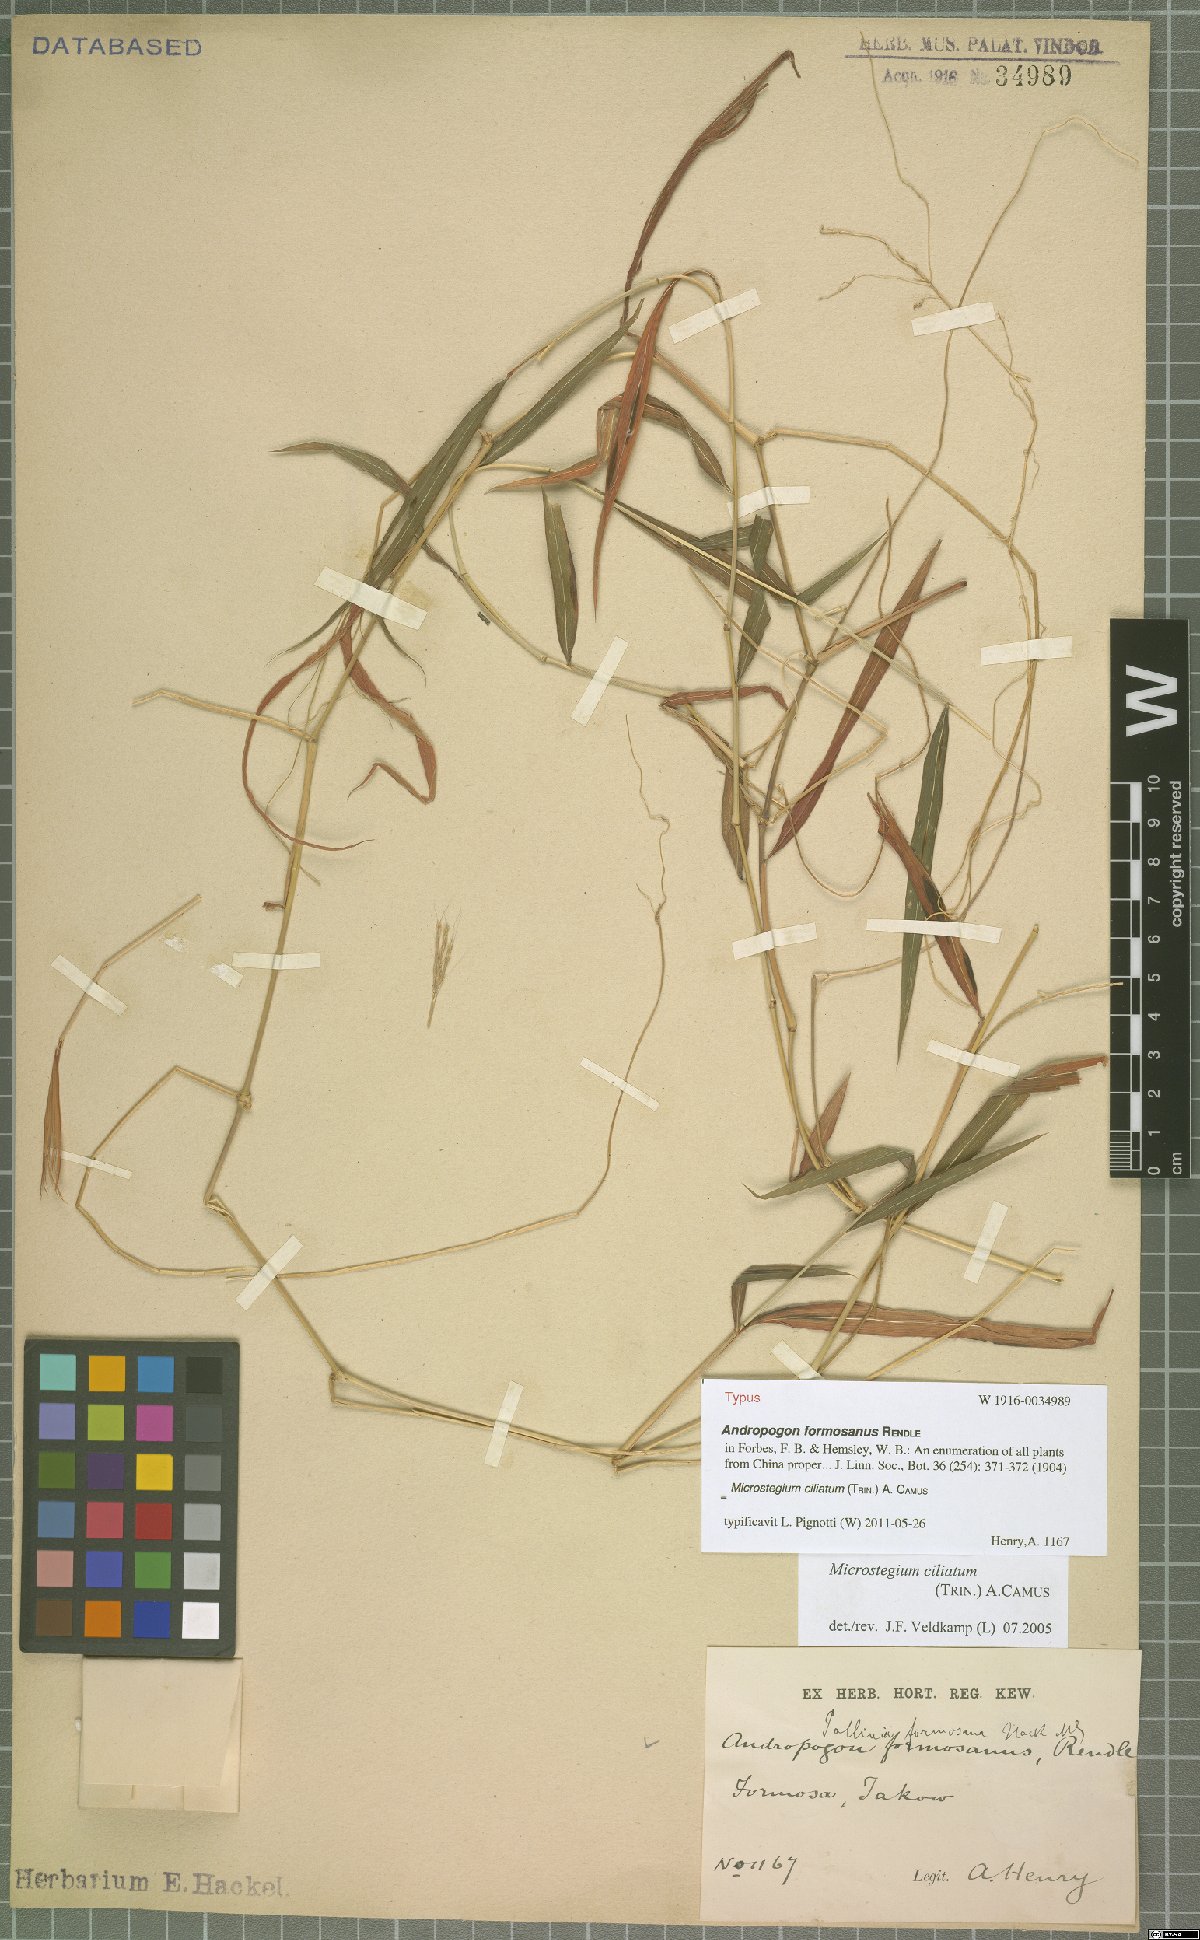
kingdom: Plantae
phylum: Tracheophyta
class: Liliopsida
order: Poales
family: Poaceae
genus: Microstegium
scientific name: Microstegium fasciculatum
